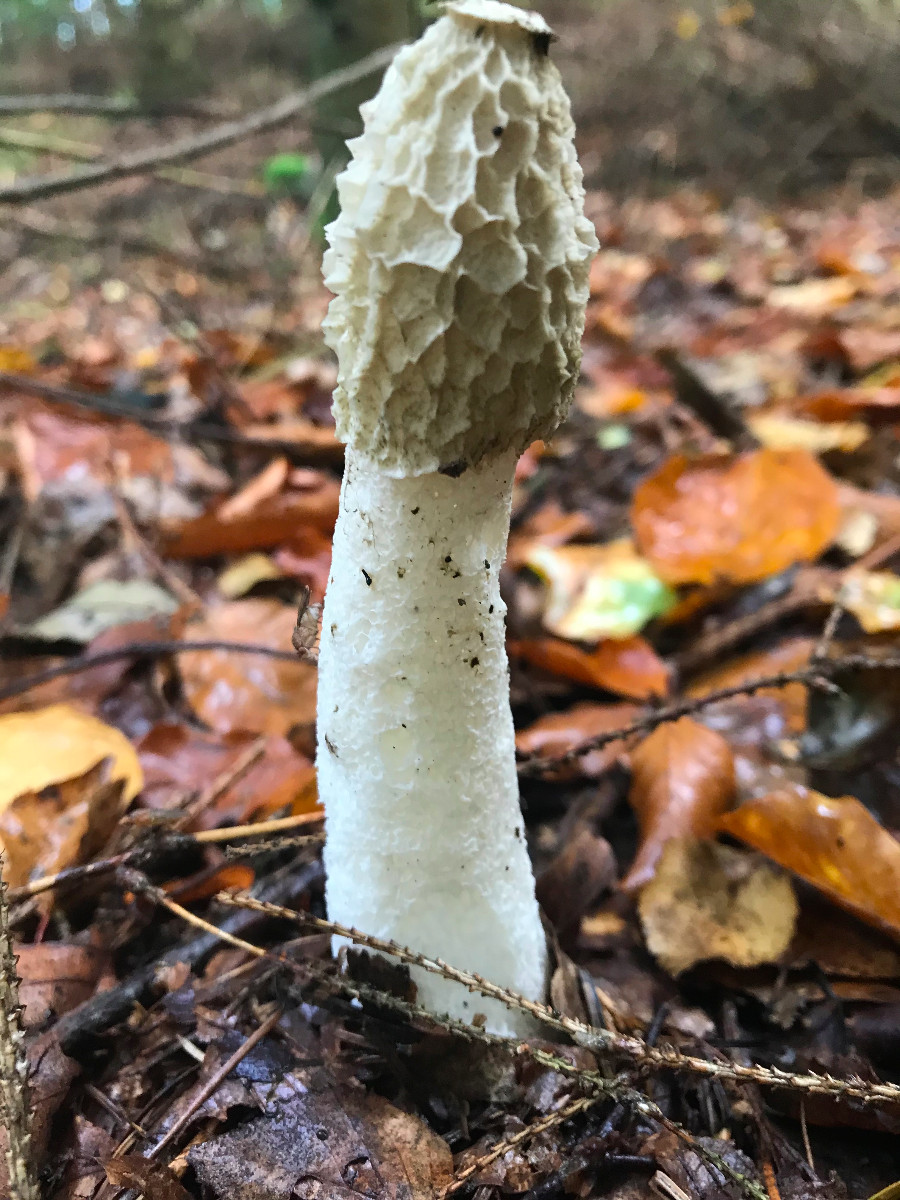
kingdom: Fungi
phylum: Basidiomycota
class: Agaricomycetes
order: Phallales
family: Phallaceae
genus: Phallus
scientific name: Phallus impudicus
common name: almindelig stinksvamp
